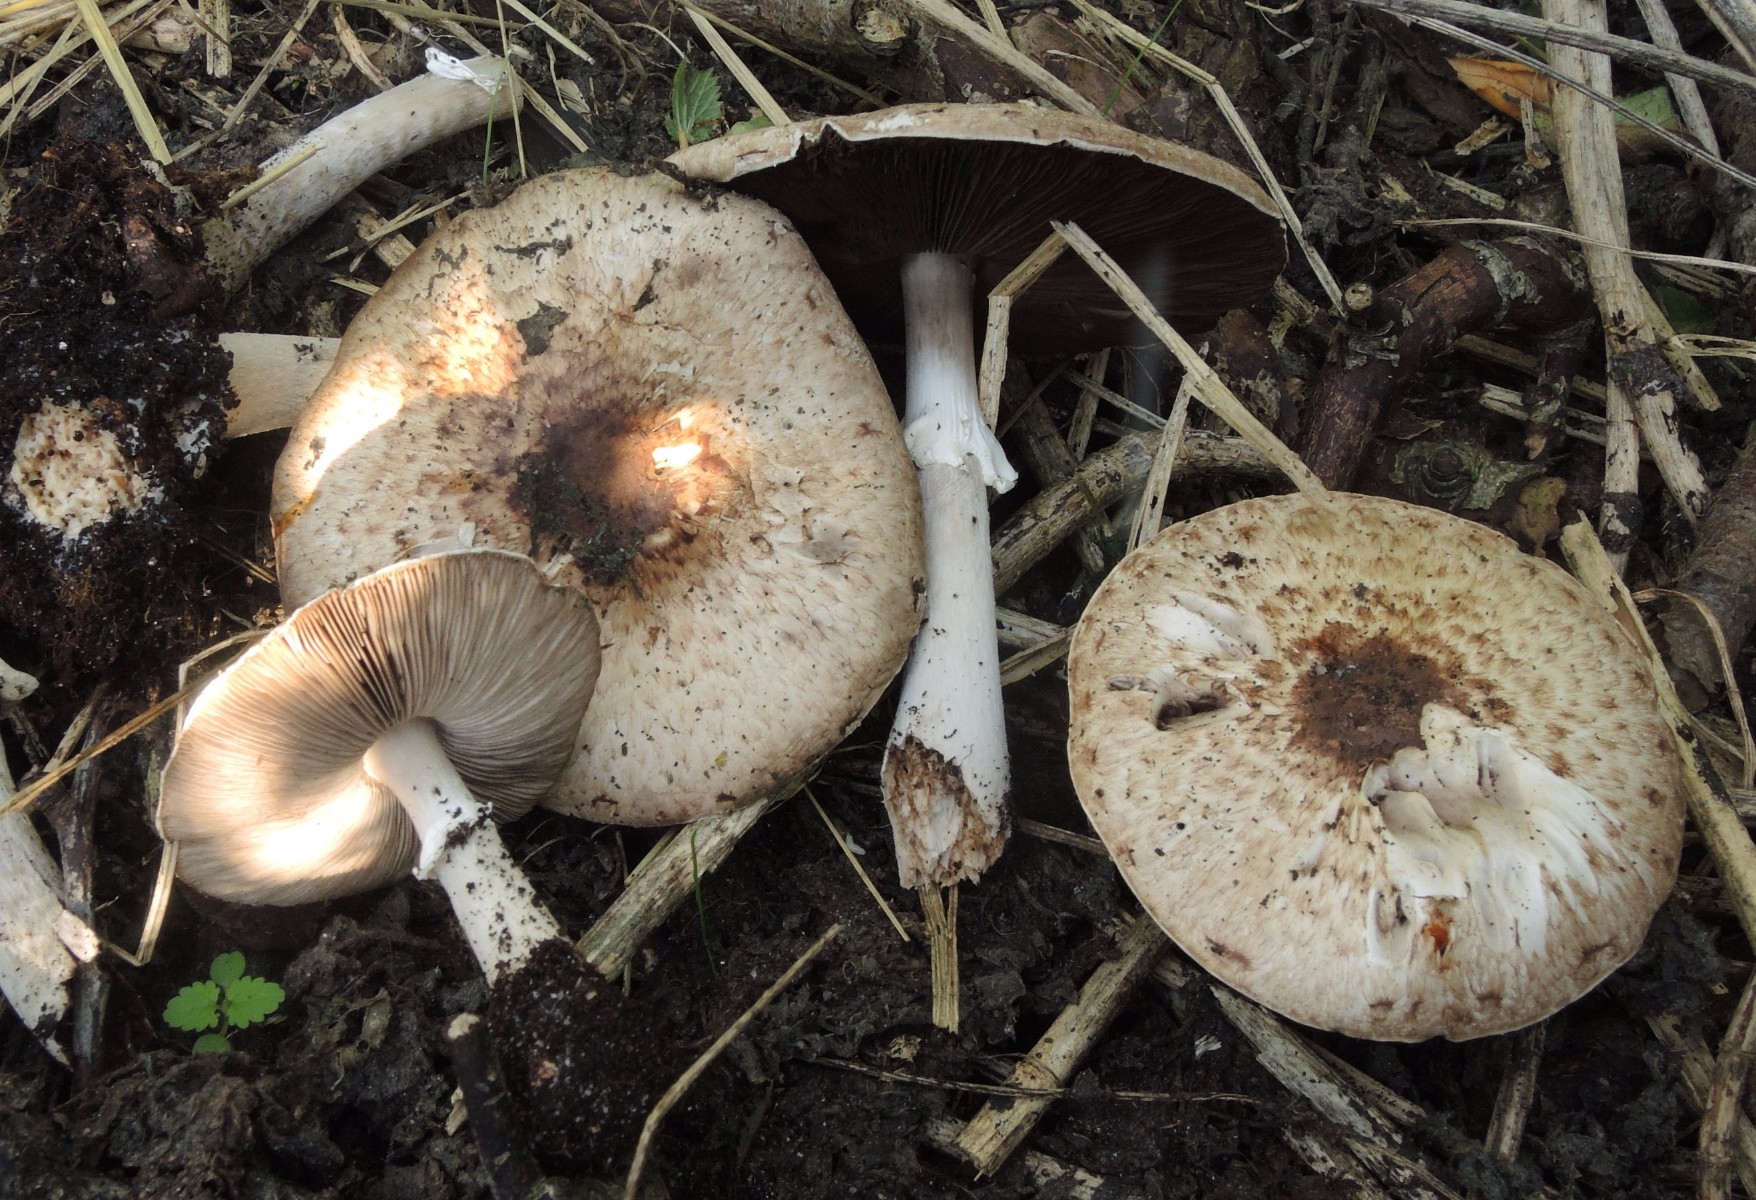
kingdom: Fungi
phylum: Basidiomycota
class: Agaricomycetes
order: Agaricales
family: Agaricaceae
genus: Agaricus
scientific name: Agaricus impudicus
